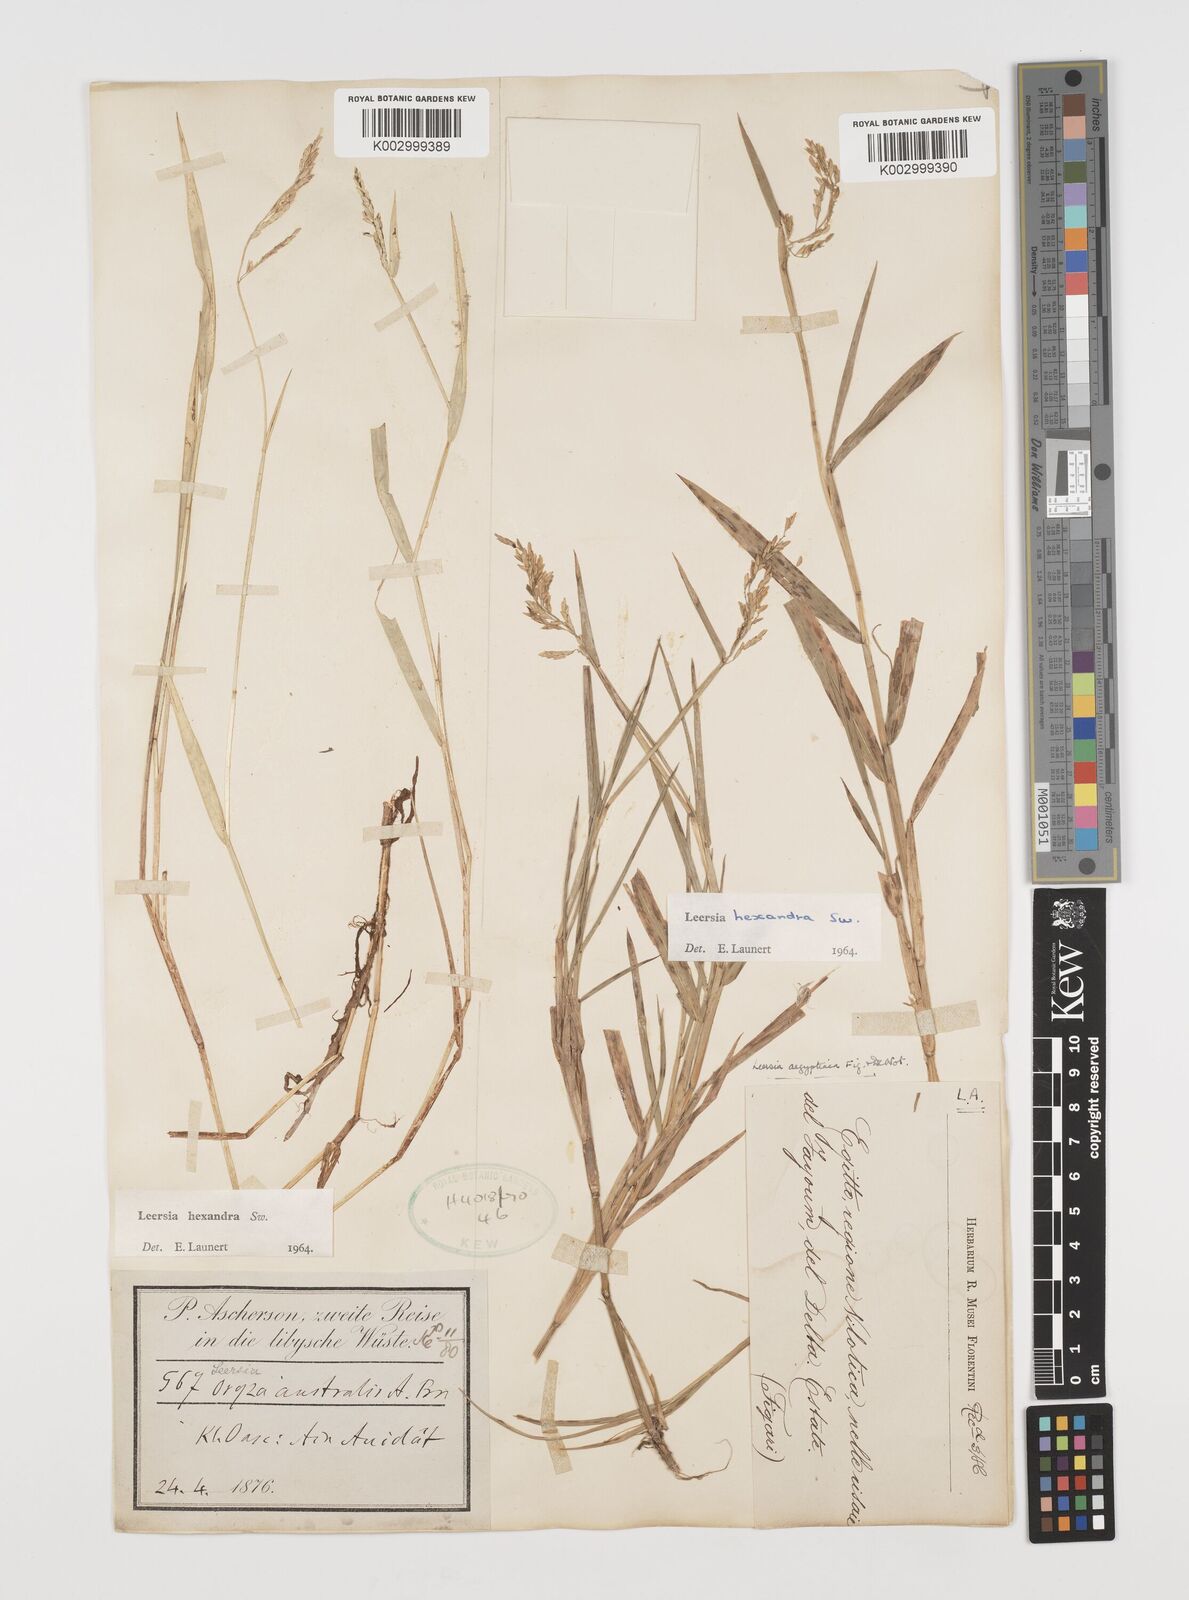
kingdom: Plantae
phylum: Tracheophyta
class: Liliopsida
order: Poales
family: Poaceae
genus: Leersia
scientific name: Leersia hexandra
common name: Southern cut grass
